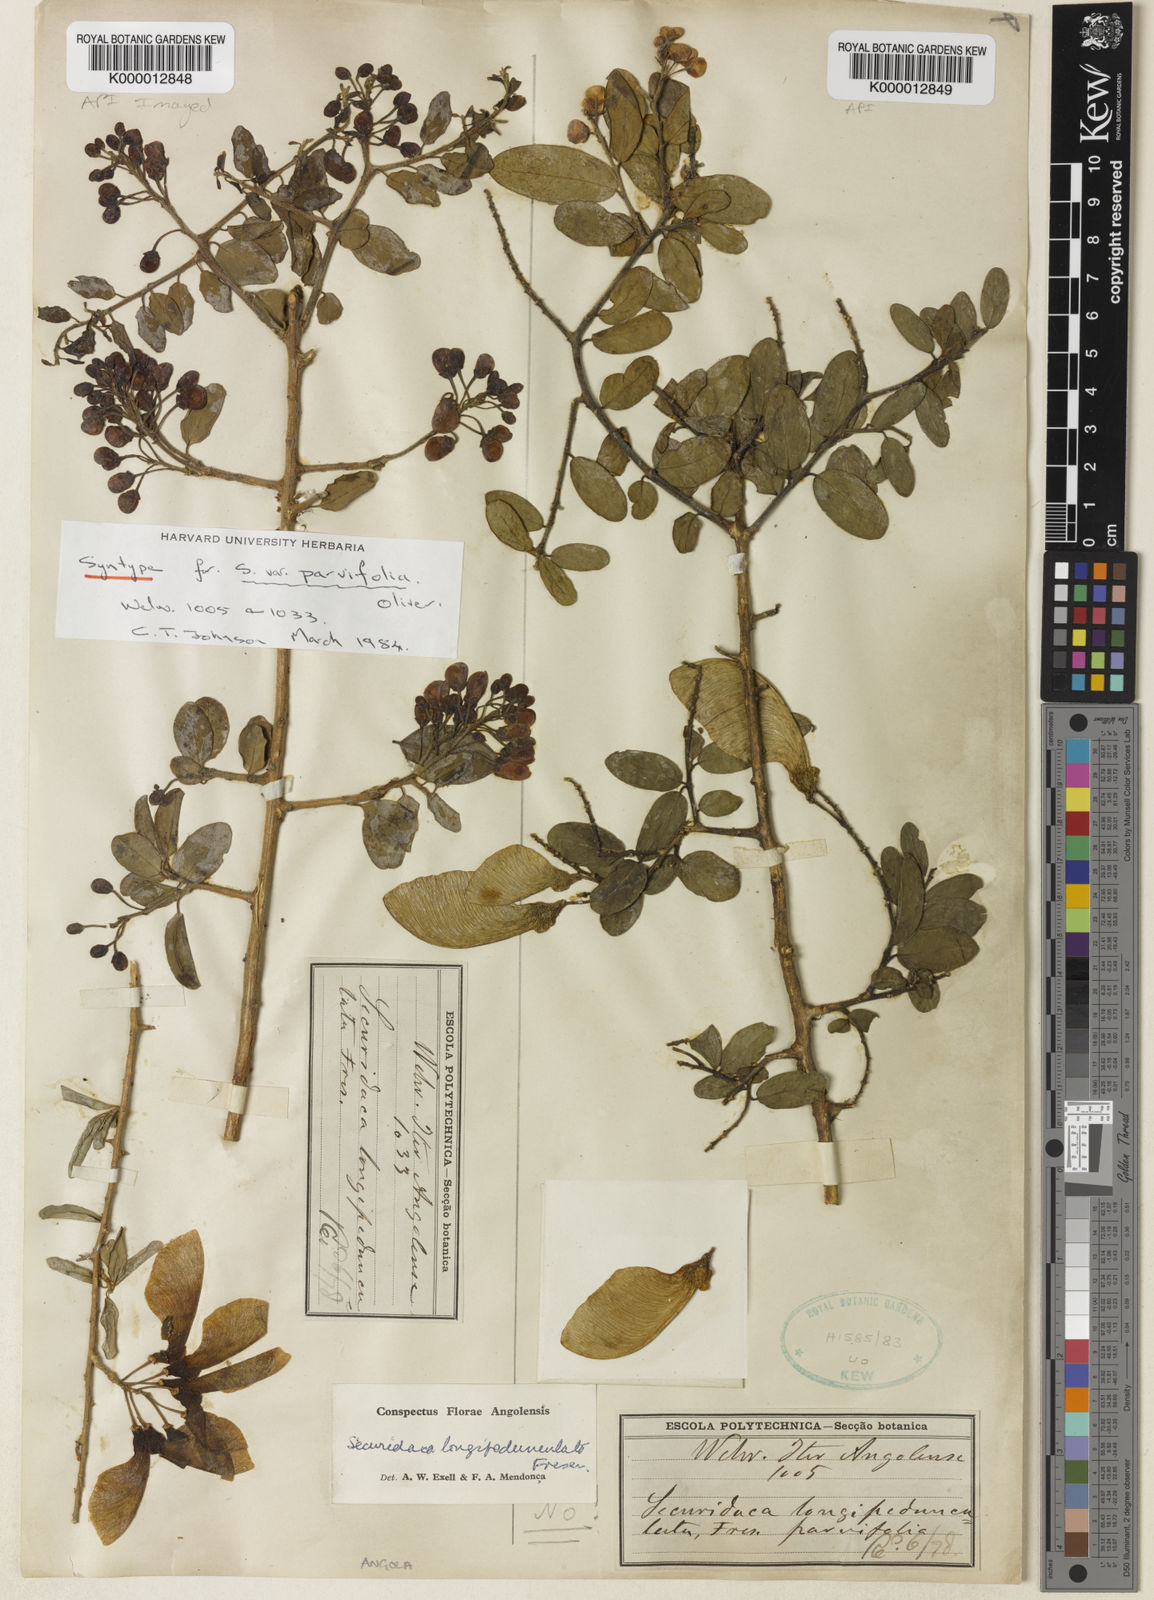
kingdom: Plantae
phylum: Tracheophyta
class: Magnoliopsida
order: Fabales
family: Polygalaceae
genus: Securidaca
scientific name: Securidaca
